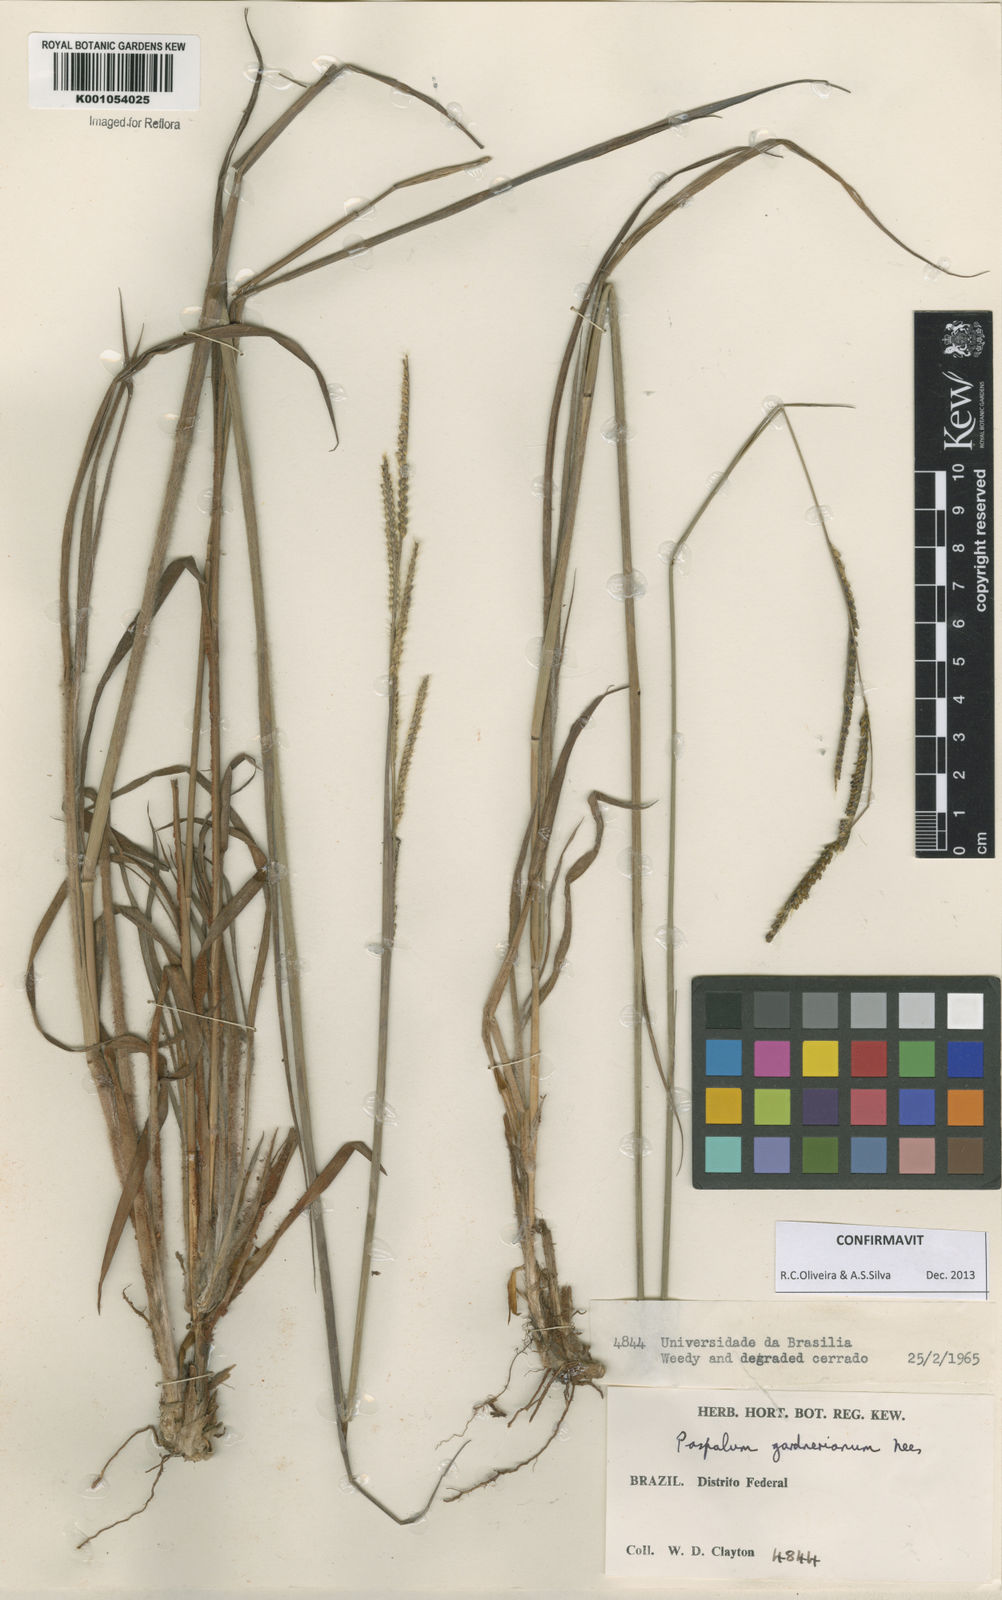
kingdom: Plantae
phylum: Tracheophyta
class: Liliopsida
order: Poales
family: Poaceae
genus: Paspalum
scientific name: Paspalum gardnerianum
